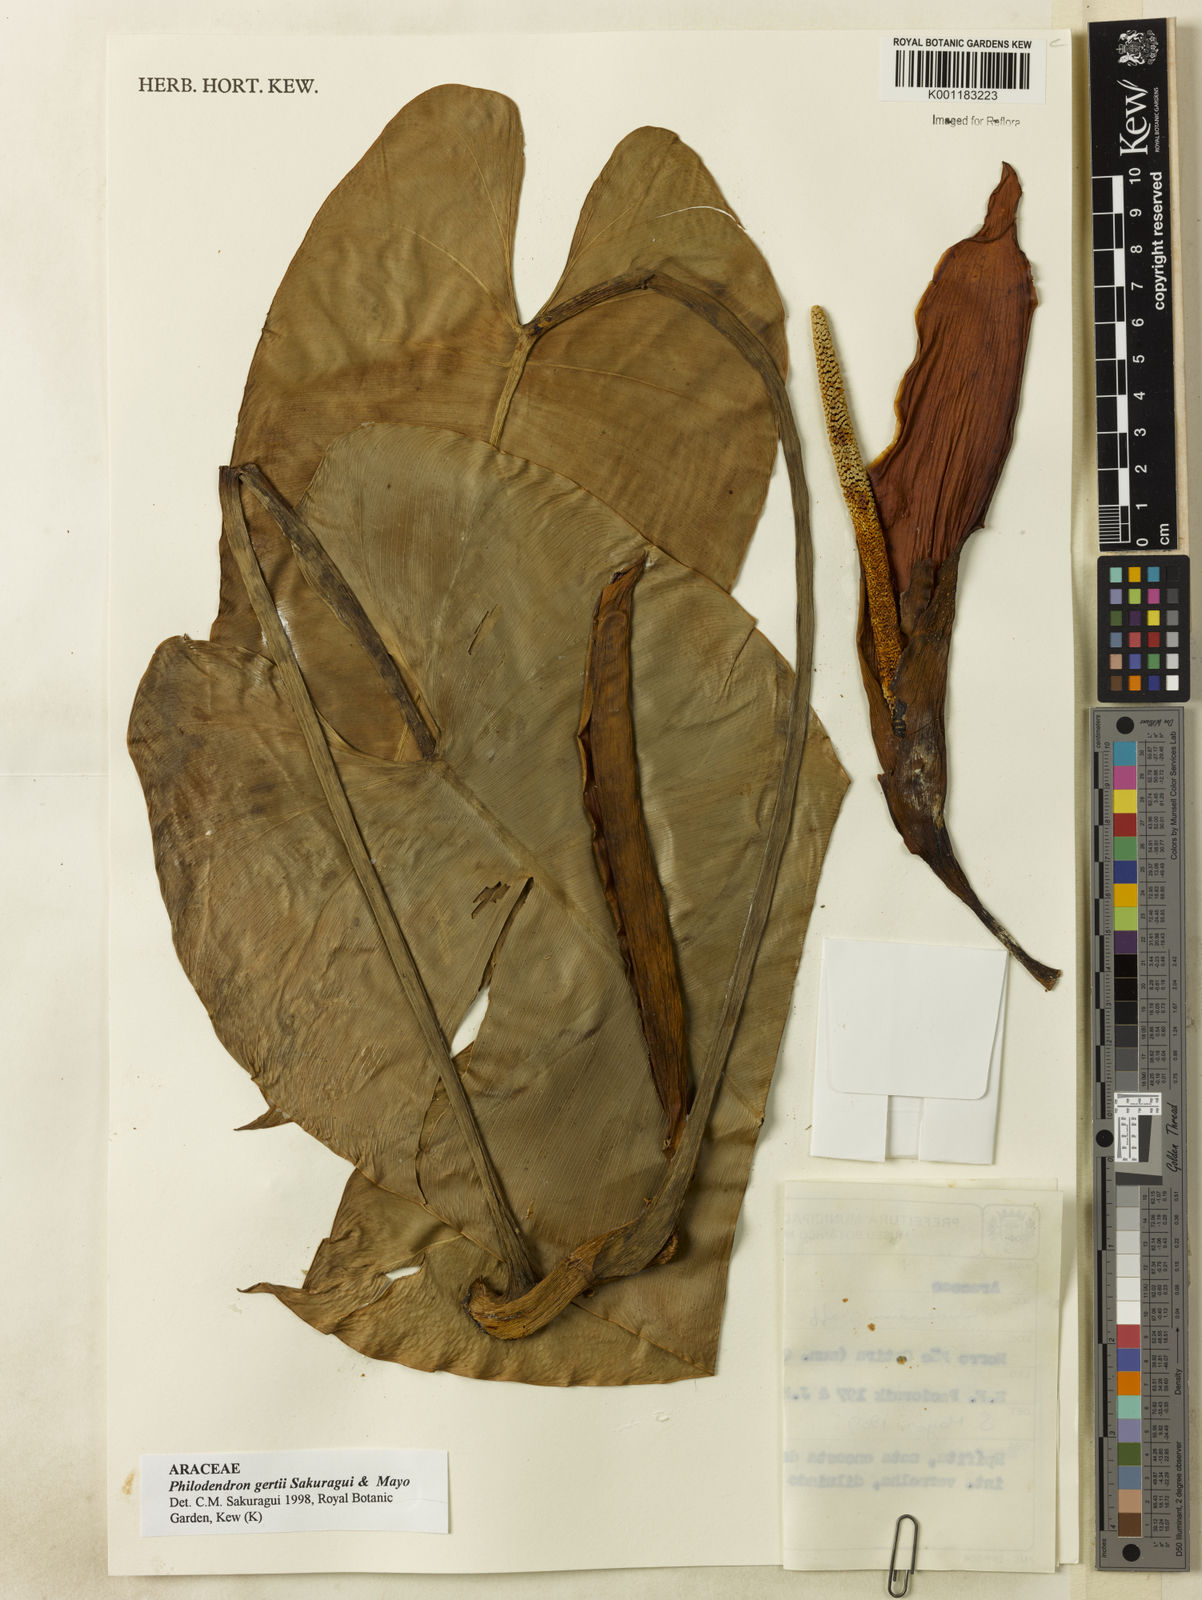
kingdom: Plantae
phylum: Tracheophyta
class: Liliopsida
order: Alismatales
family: Araceae
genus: Philodendron
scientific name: Philodendron
